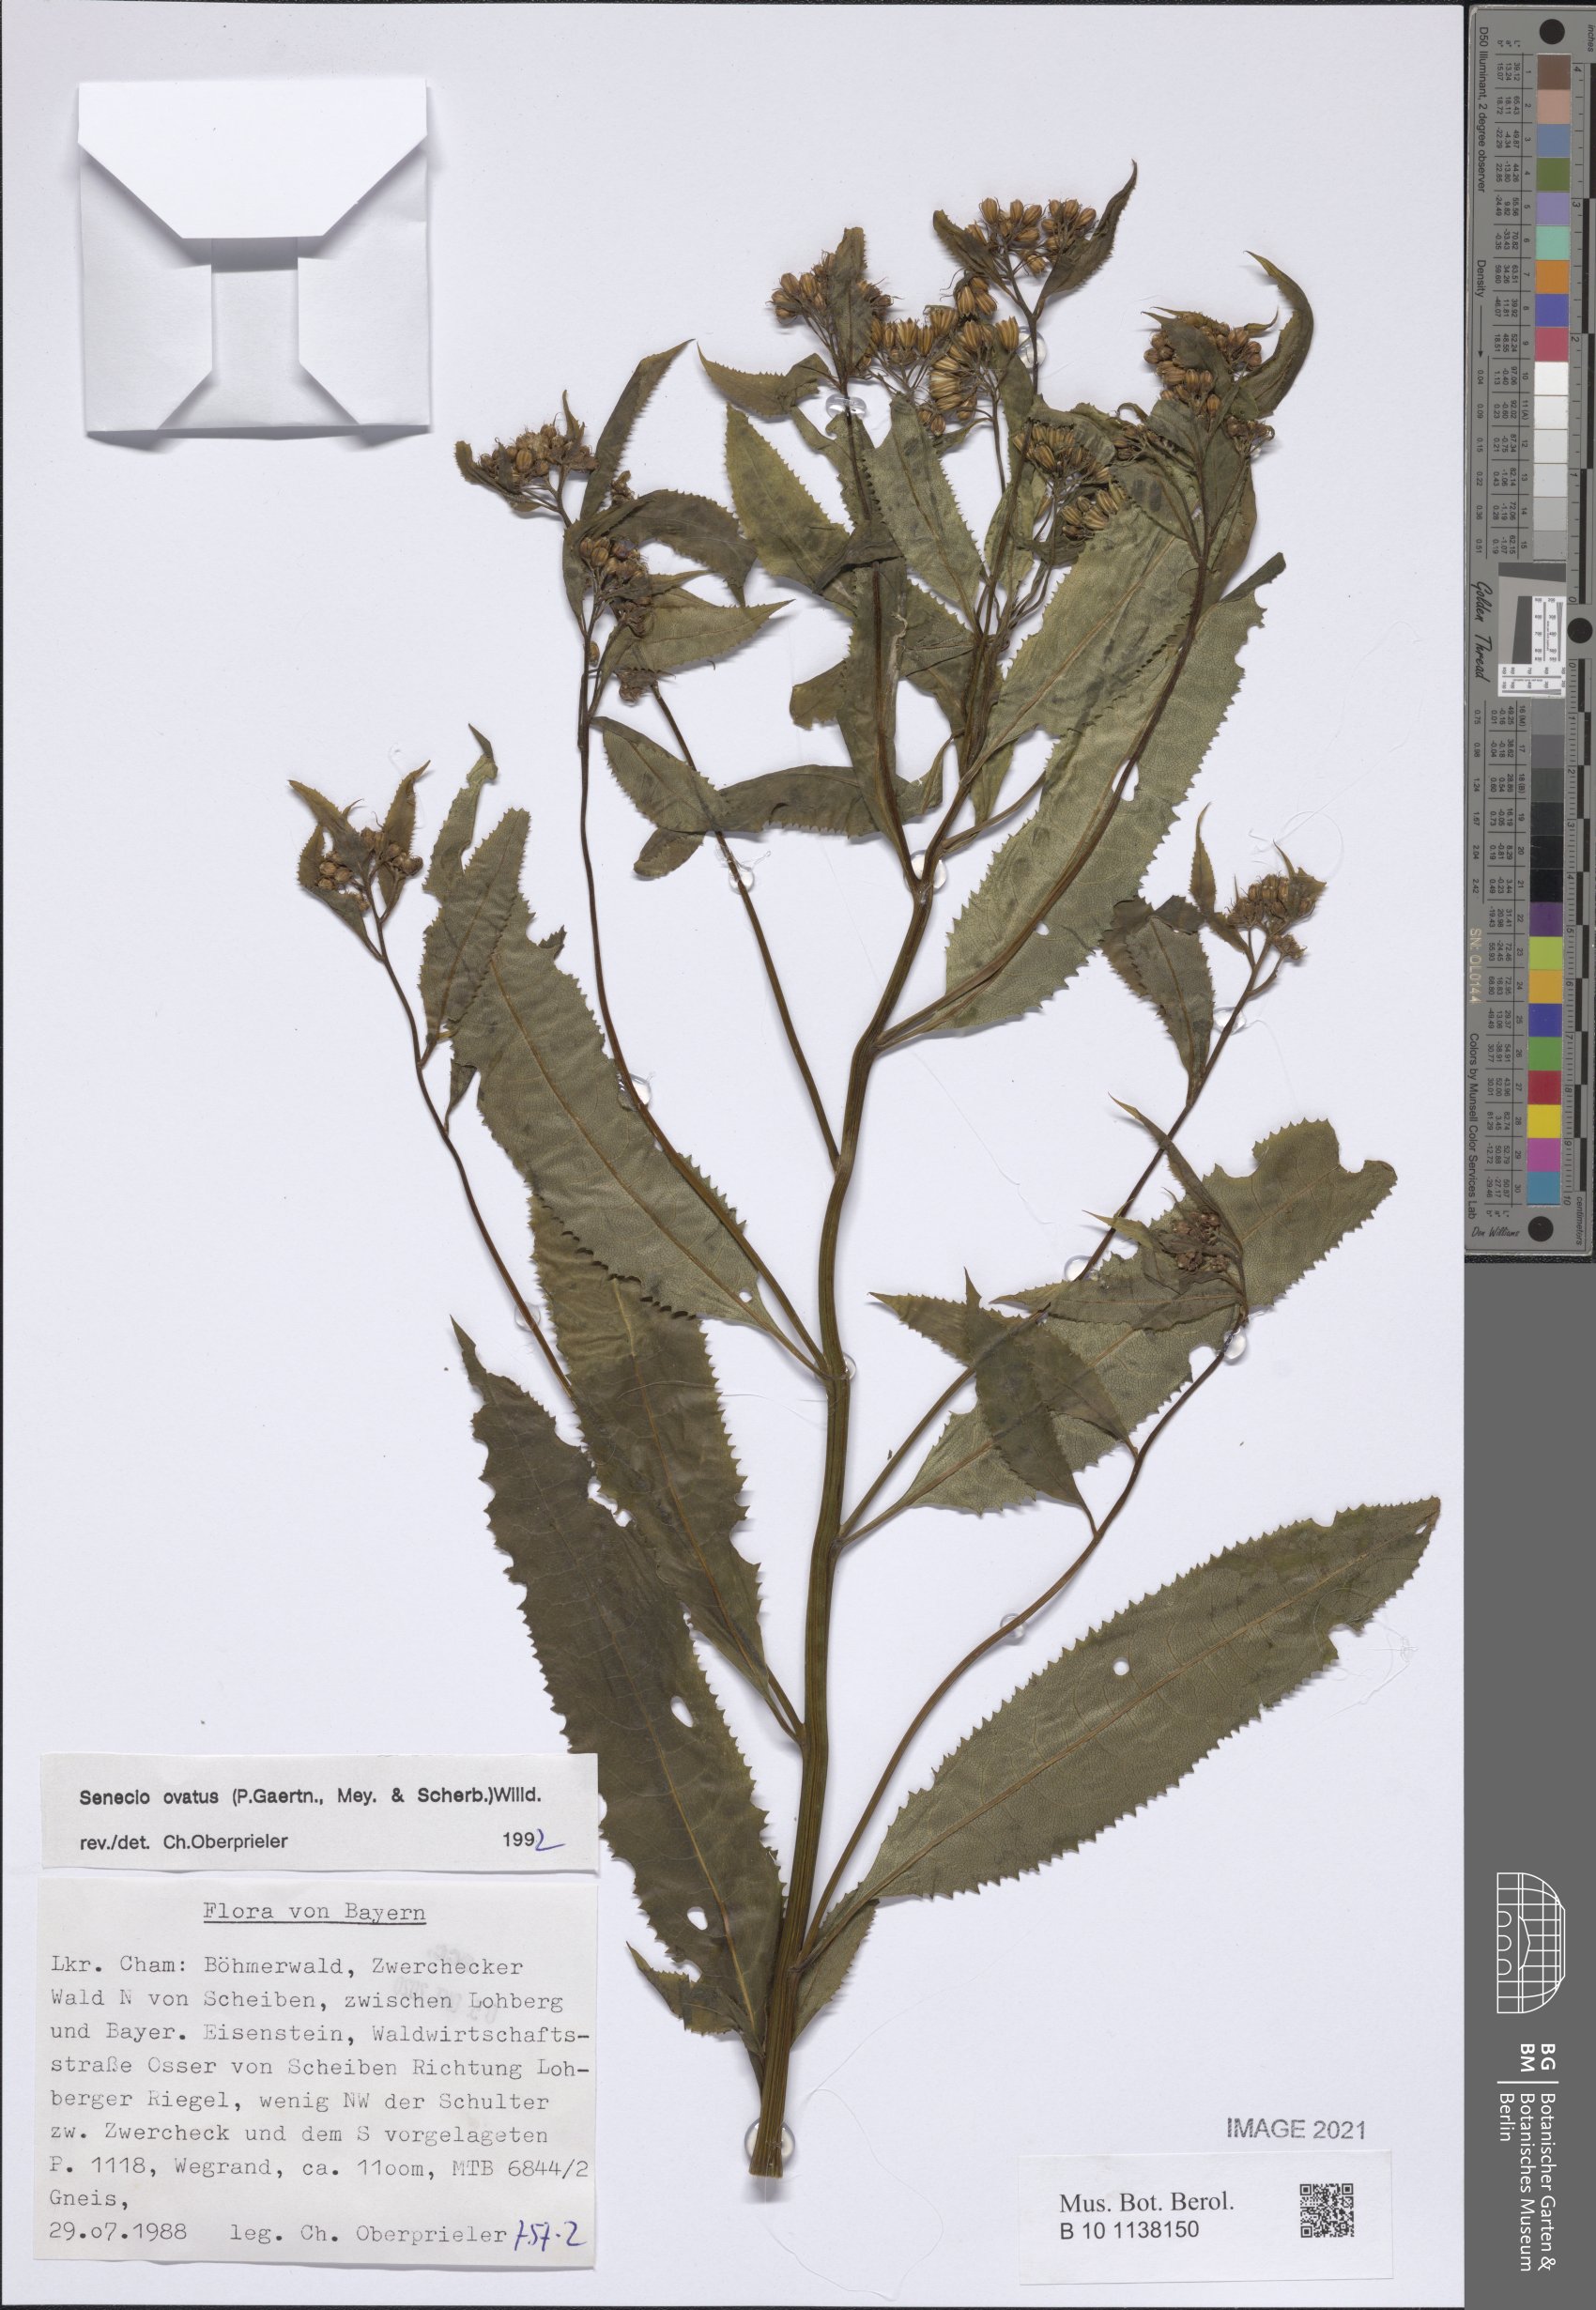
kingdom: Plantae
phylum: Tracheophyta
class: Magnoliopsida
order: Asterales
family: Asteraceae
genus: Senecio
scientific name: Senecio ovatus
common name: Wood ragwort
